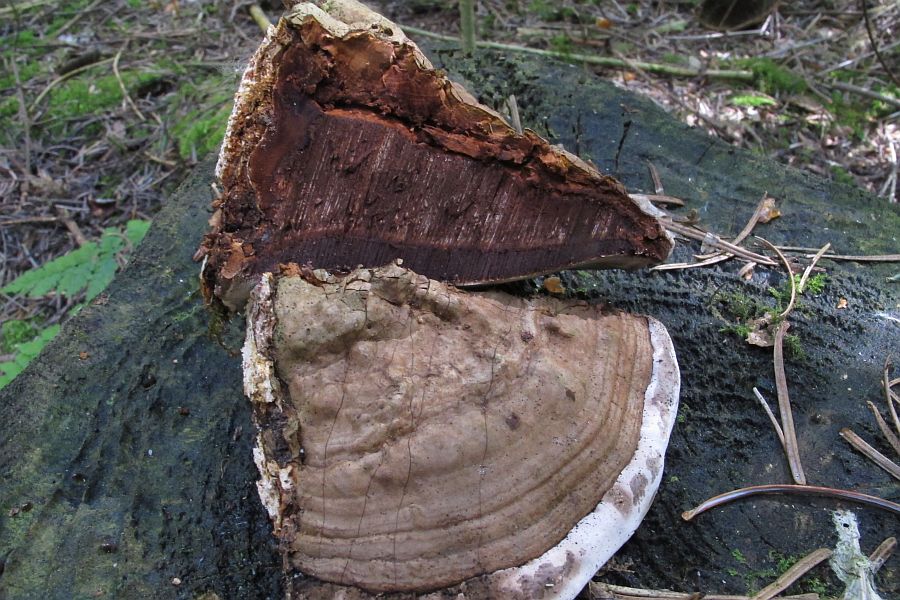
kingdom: Fungi
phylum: Basidiomycota
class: Agaricomycetes
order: Polyporales
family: Polyporaceae
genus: Ganoderma
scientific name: Ganoderma applanatum
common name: flad lakporesvamp
